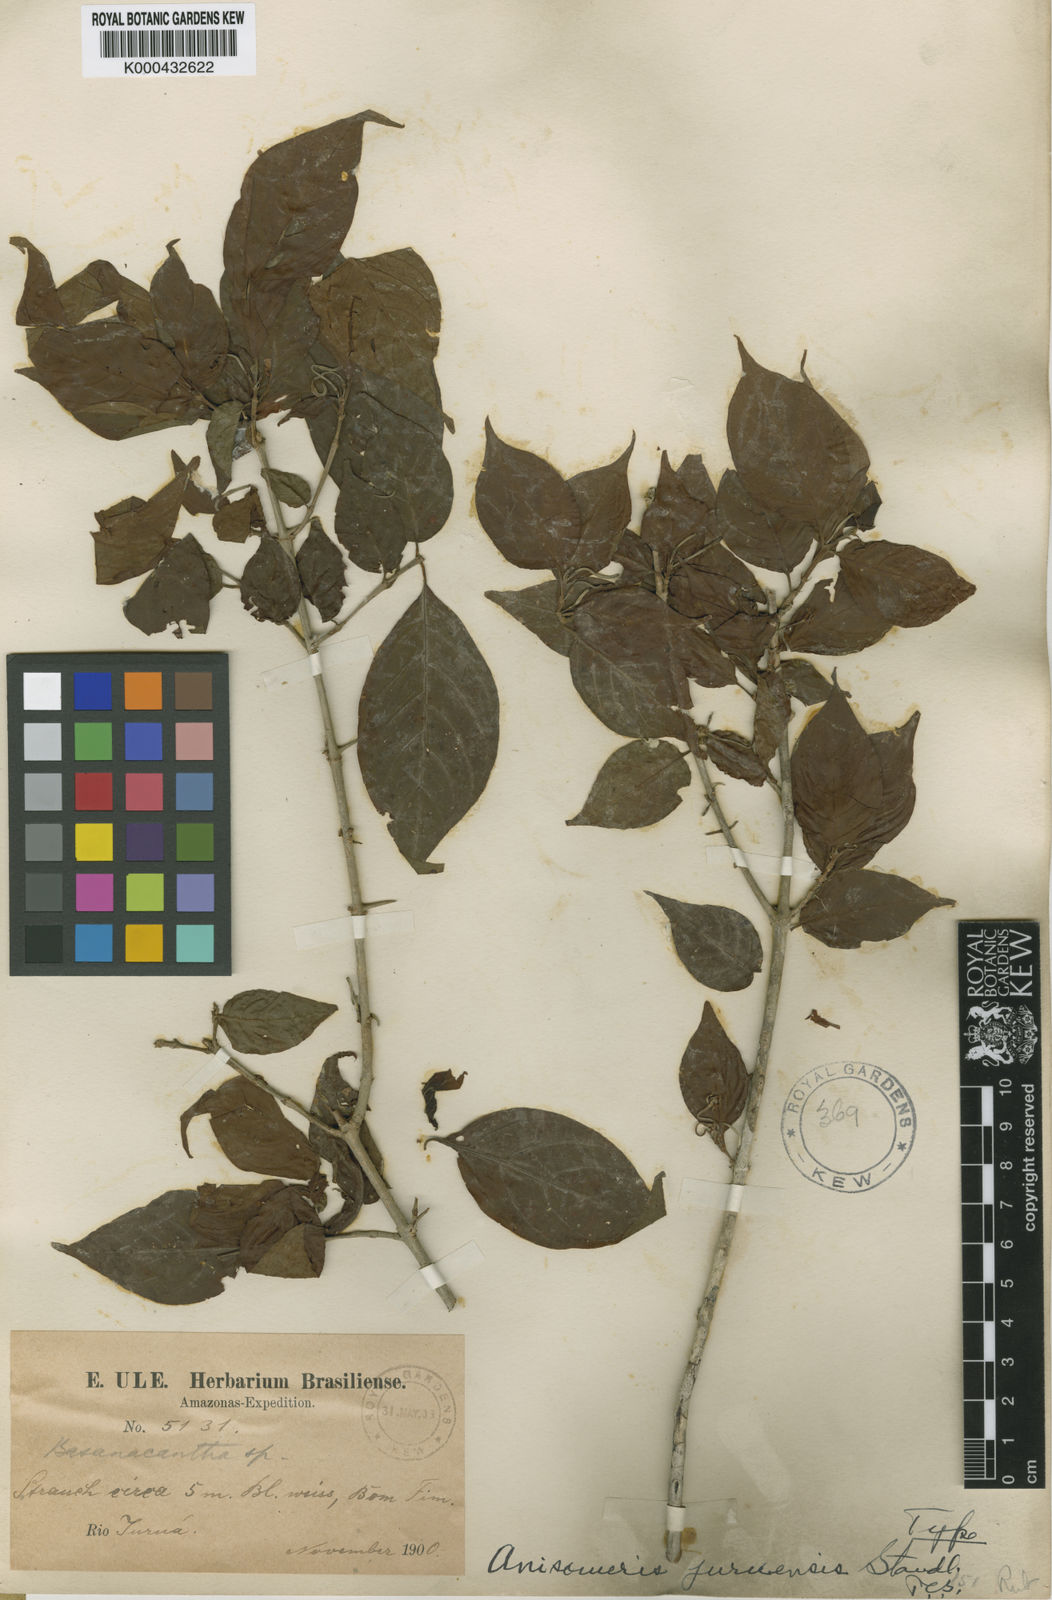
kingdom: Plantae
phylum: Tracheophyta
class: Magnoliopsida
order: Gentianales
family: Rubiaceae
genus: Chomelia
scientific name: Chomelia juruensis
